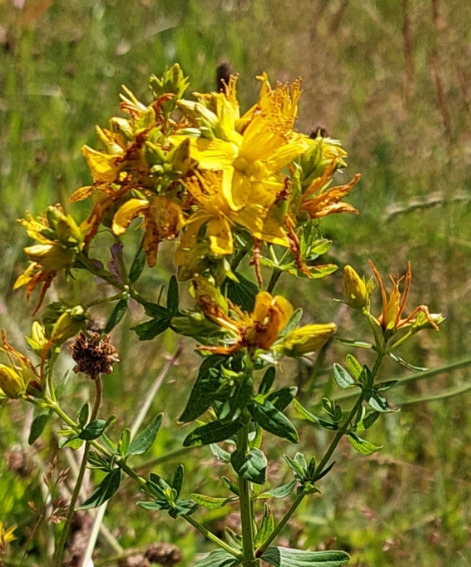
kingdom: Plantae
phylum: Tracheophyta
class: Magnoliopsida
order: Malpighiales
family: Hypericaceae
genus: Hypericum
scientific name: Hypericum perforatum
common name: Prikbladet perikon
